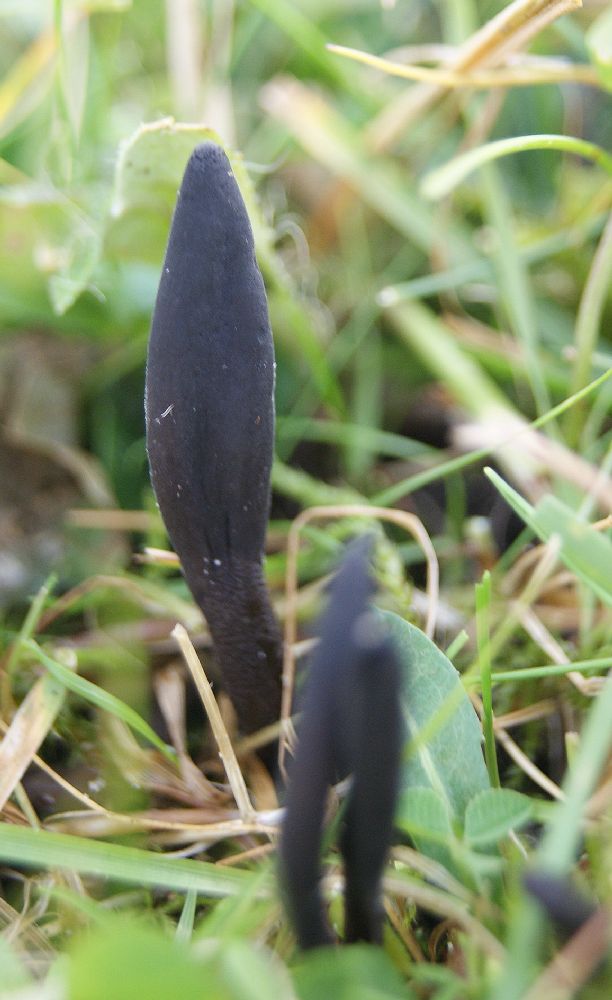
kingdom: Fungi
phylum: Ascomycota
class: Geoglossomycetes
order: Geoglossales
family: Geoglossaceae
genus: Hemileucoglossum
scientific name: Hemileucoglossum elongatum
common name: småsporet jordtunge
